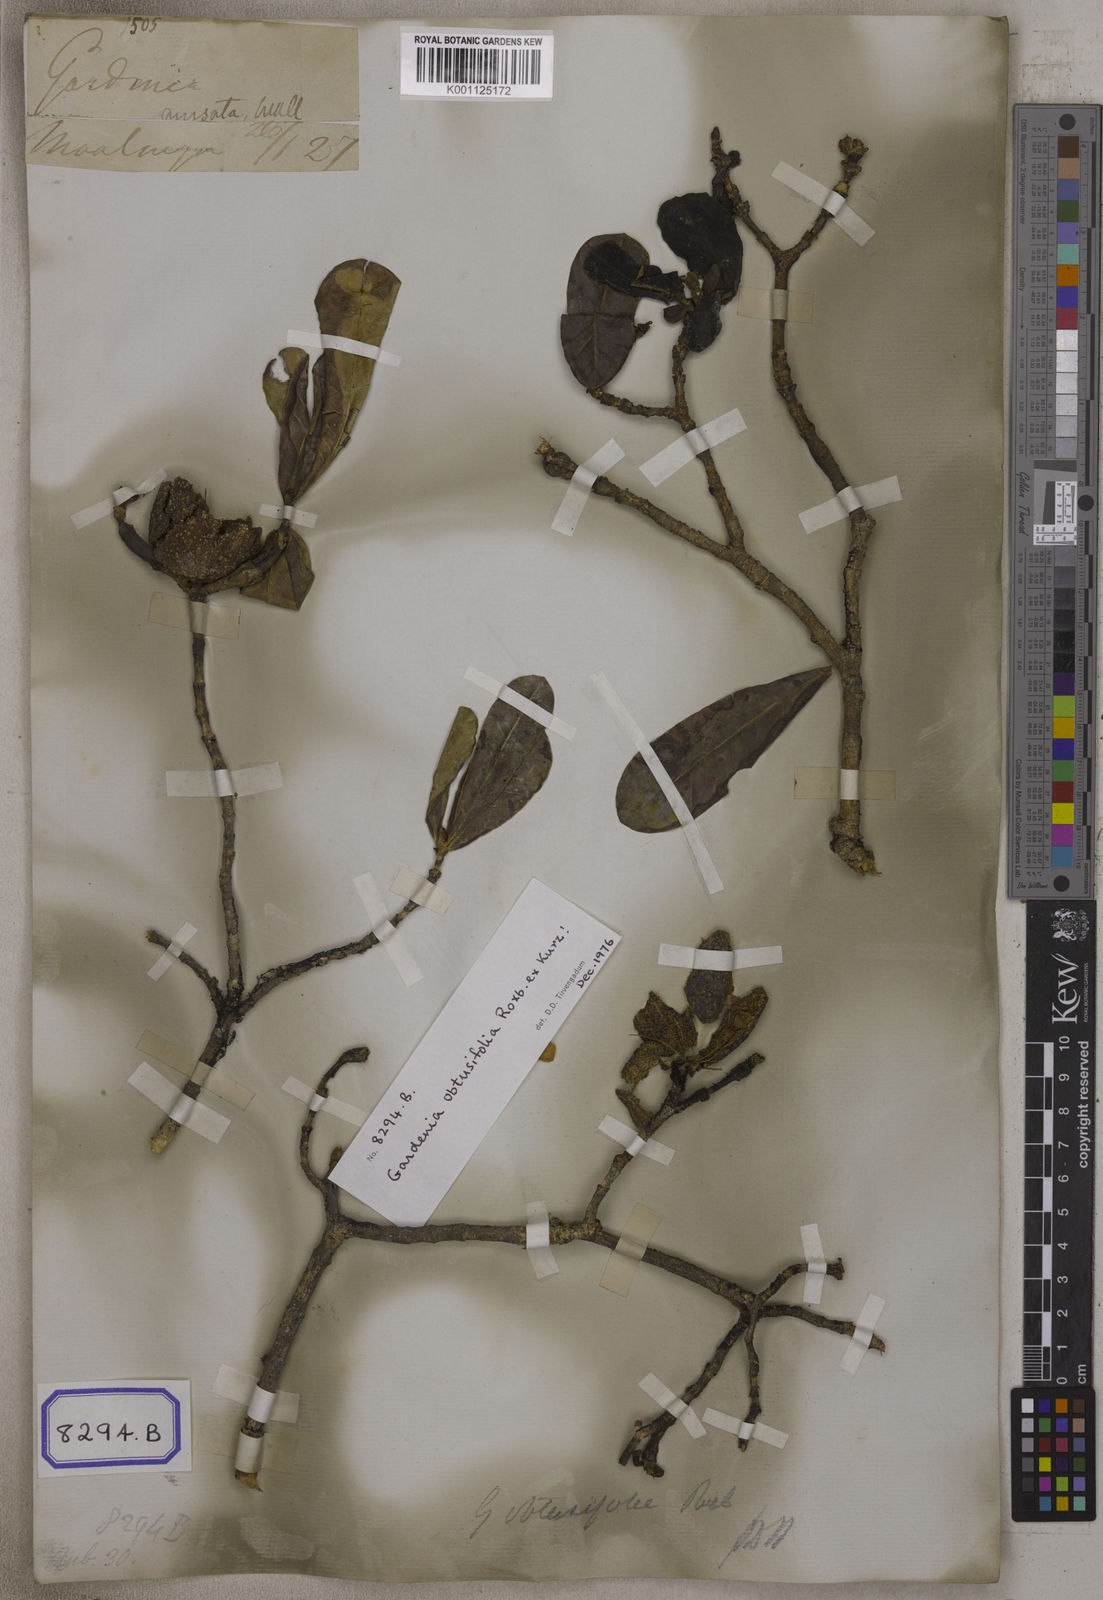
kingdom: Plantae
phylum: Tracheophyta
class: Magnoliopsida
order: Gentianales
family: Rubiaceae
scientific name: Rubiaceae
